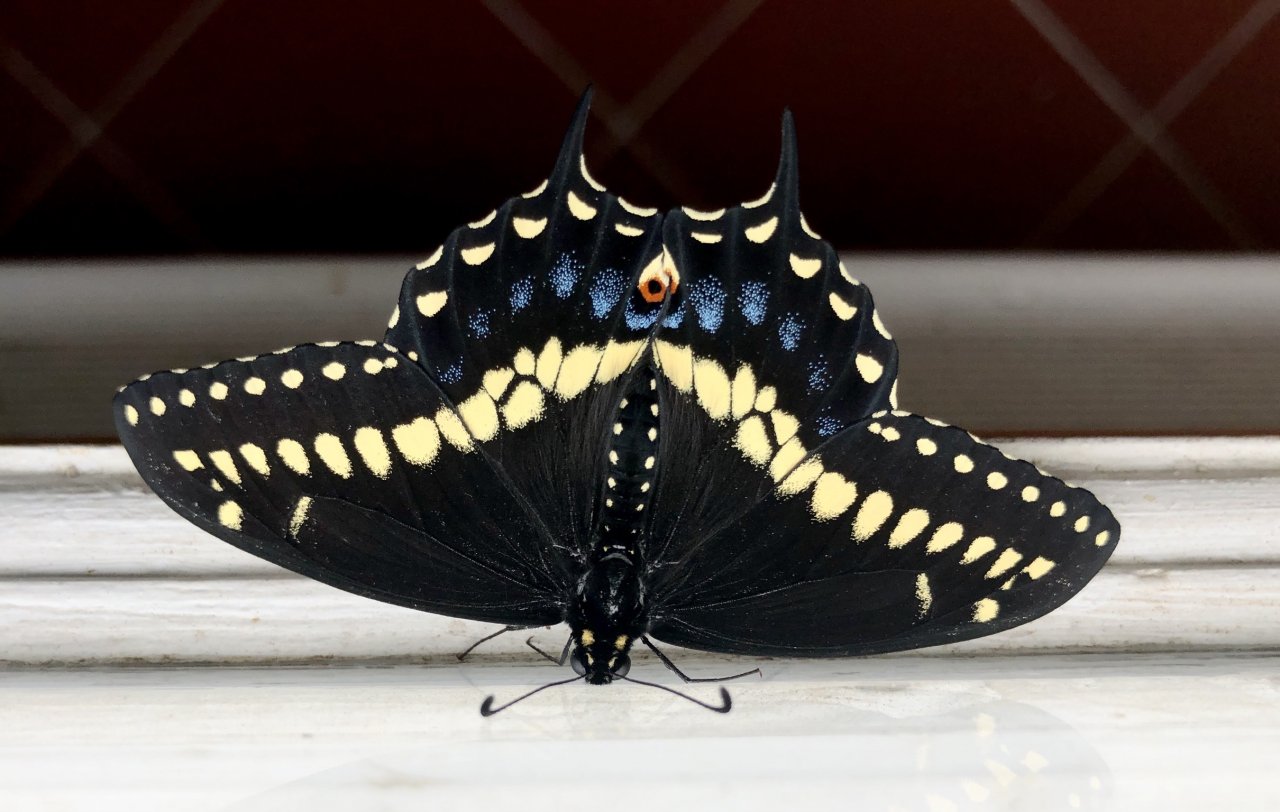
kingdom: Animalia
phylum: Arthropoda
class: Insecta
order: Lepidoptera
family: Papilionidae
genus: Papilio
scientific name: Papilio polyxenes
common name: Black Swallowtail
